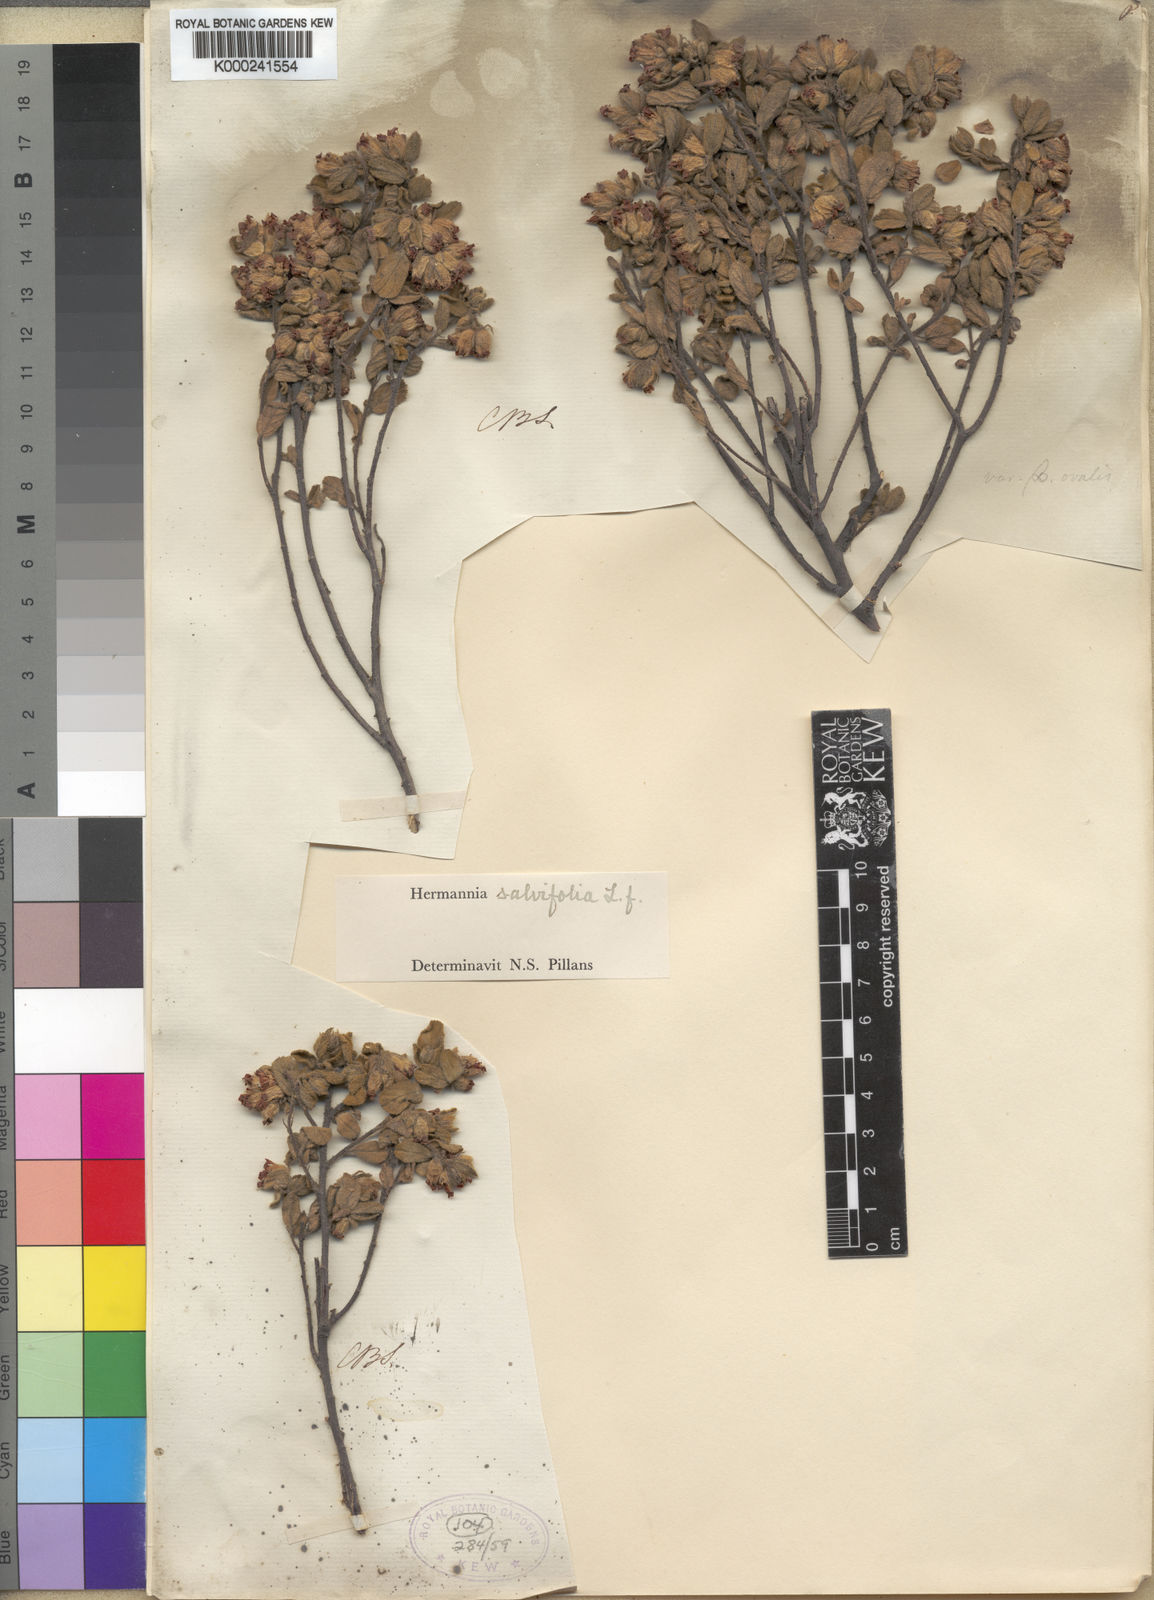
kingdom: Plantae
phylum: Tracheophyta
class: Magnoliopsida
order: Malvales
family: Malvaceae
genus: Hermannia
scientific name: Hermannia salviifolia
